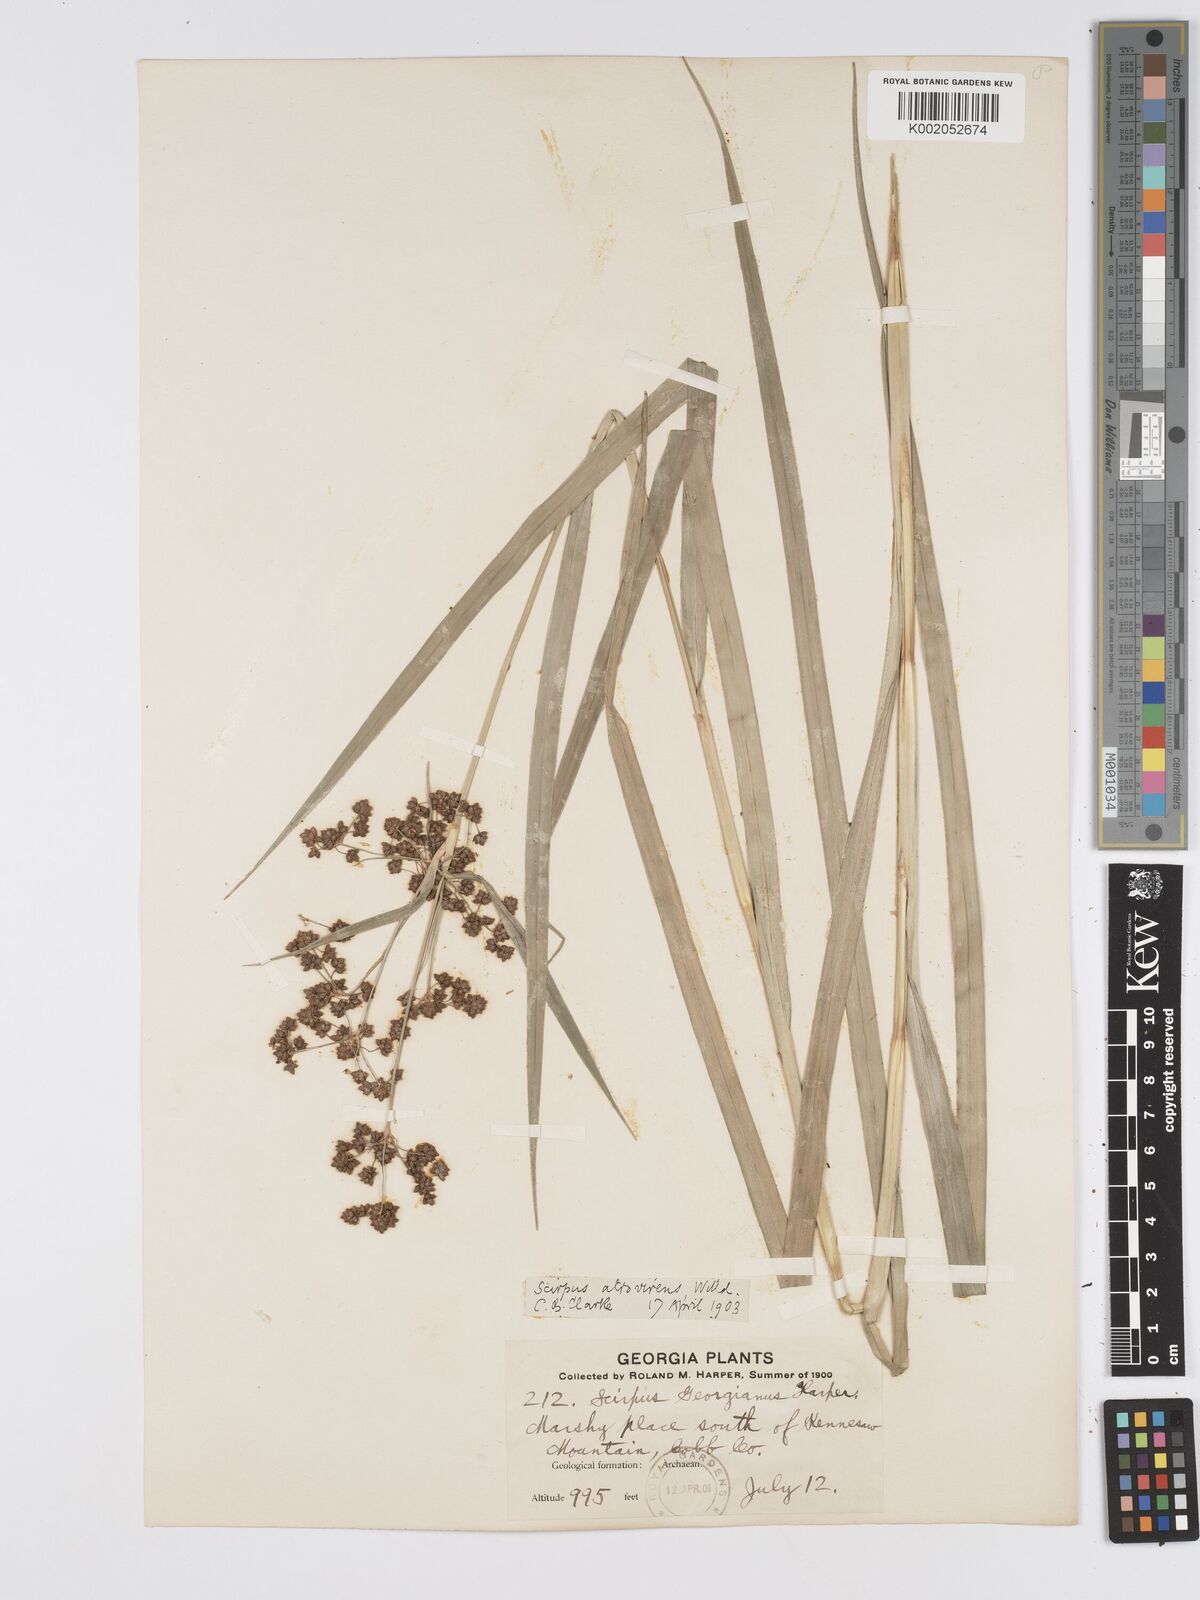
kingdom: Plantae
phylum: Tracheophyta
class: Liliopsida
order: Poales
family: Cyperaceae
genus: Scirpus
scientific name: Scirpus atrovirens
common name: Black bulrush
